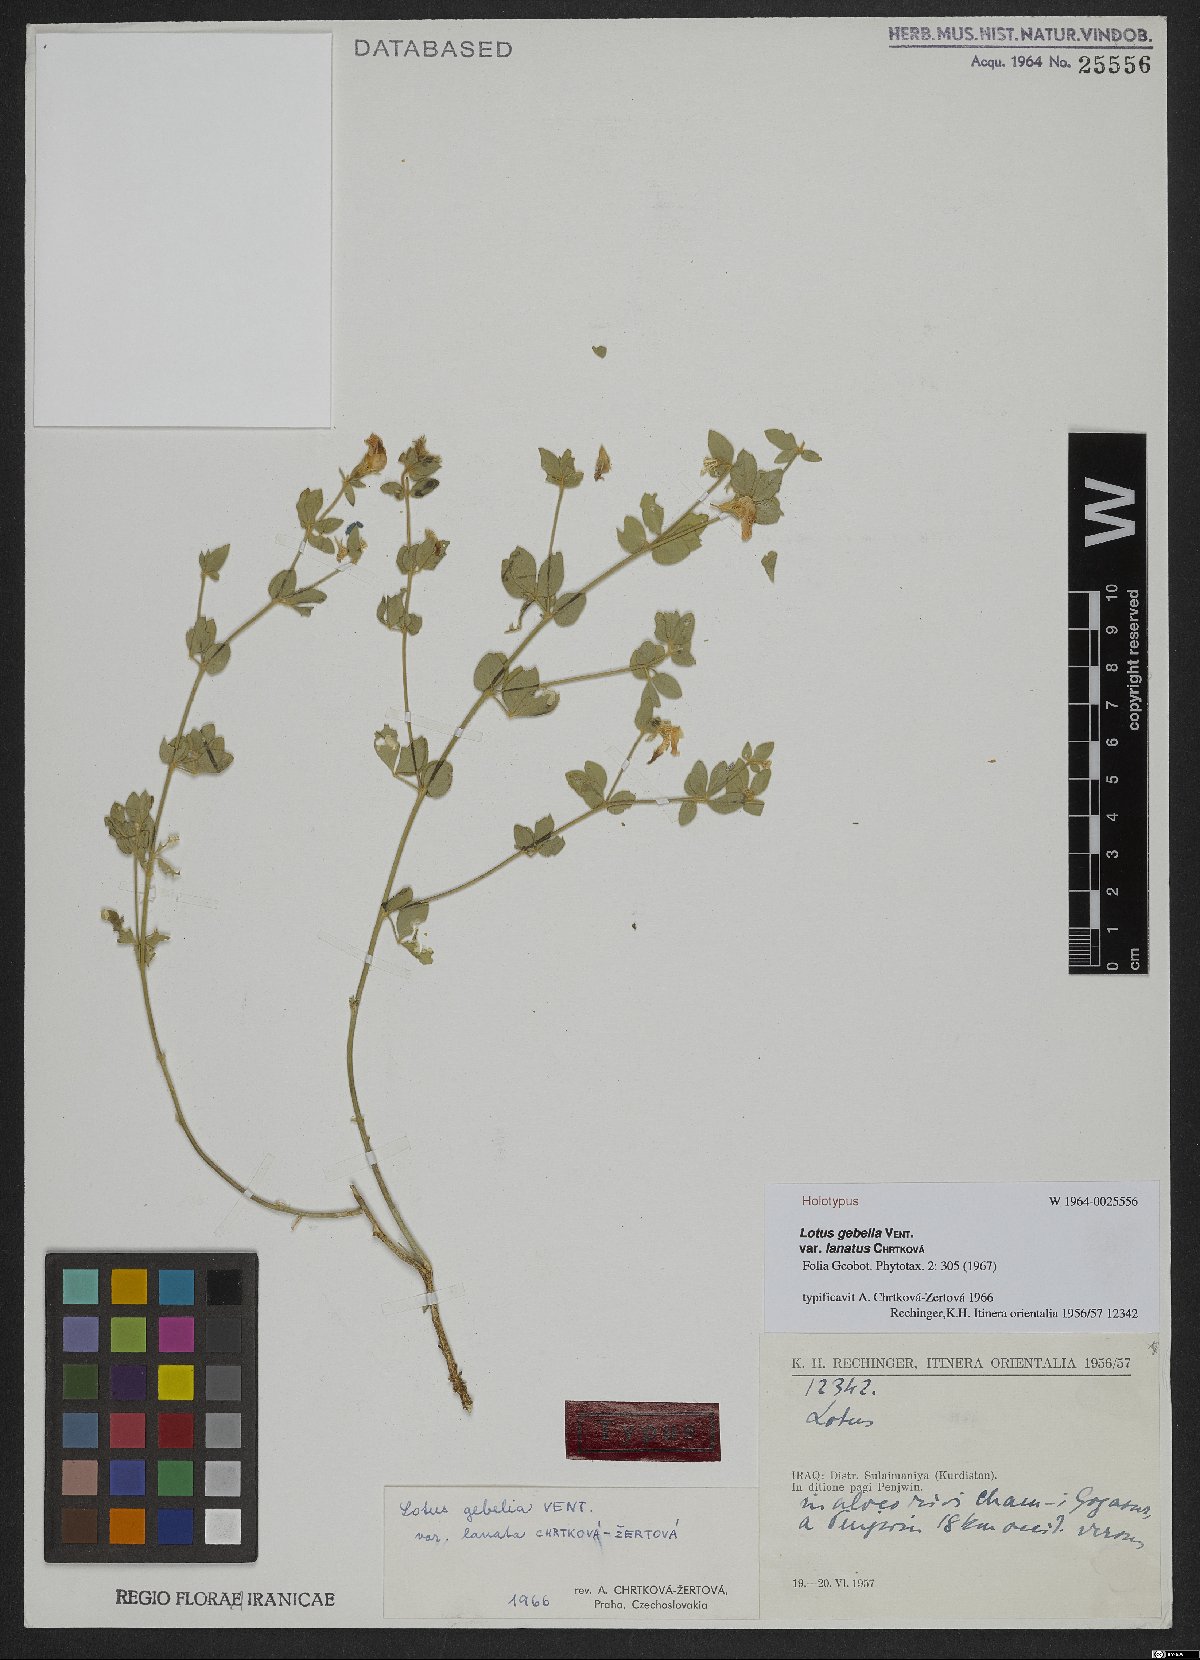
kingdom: Plantae
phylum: Tracheophyta
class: Magnoliopsida
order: Fabales
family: Fabaceae
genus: Lotus
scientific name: Lotus gebelia
